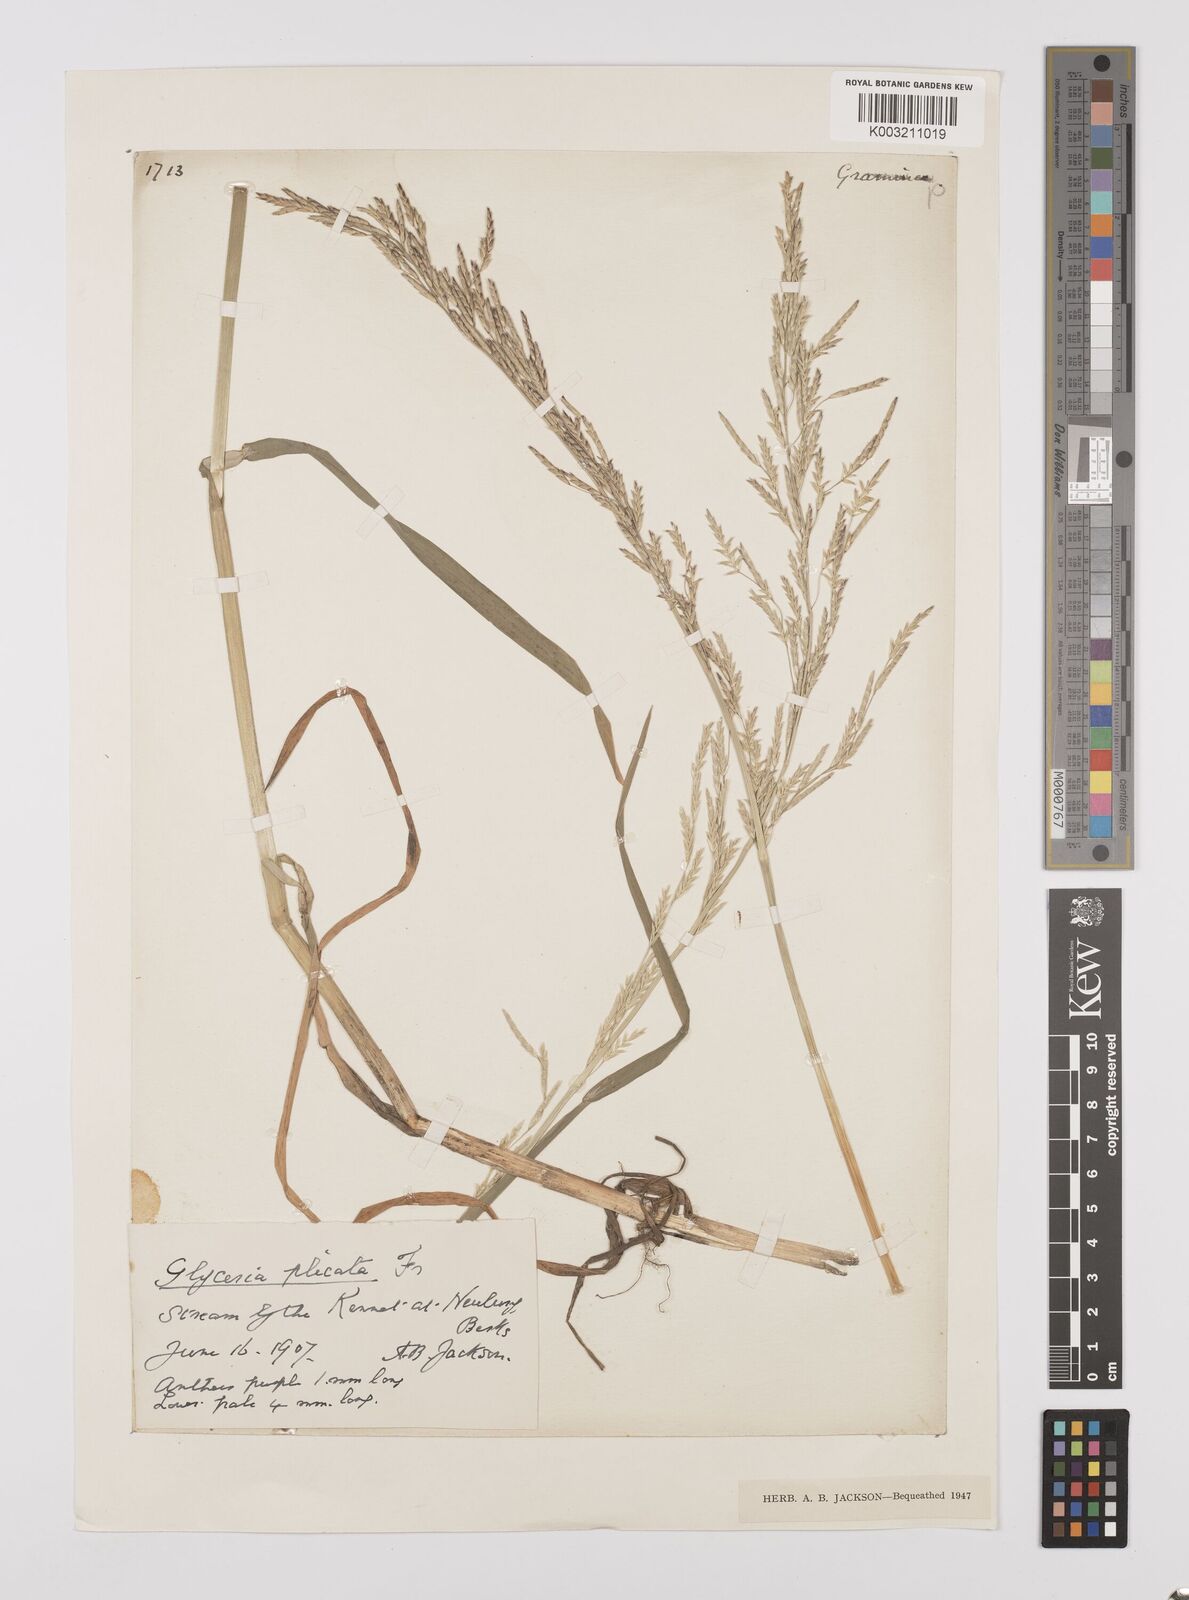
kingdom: Plantae
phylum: Tracheophyta
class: Liliopsida
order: Poales
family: Poaceae
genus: Glyceria
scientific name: Glyceria notata
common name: Plicate sweet-grass
